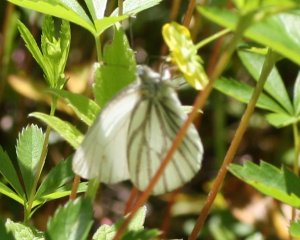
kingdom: Animalia
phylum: Arthropoda
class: Insecta
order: Lepidoptera
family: Pieridae
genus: Pieris
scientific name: Pieris oleracea
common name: Mustard White
